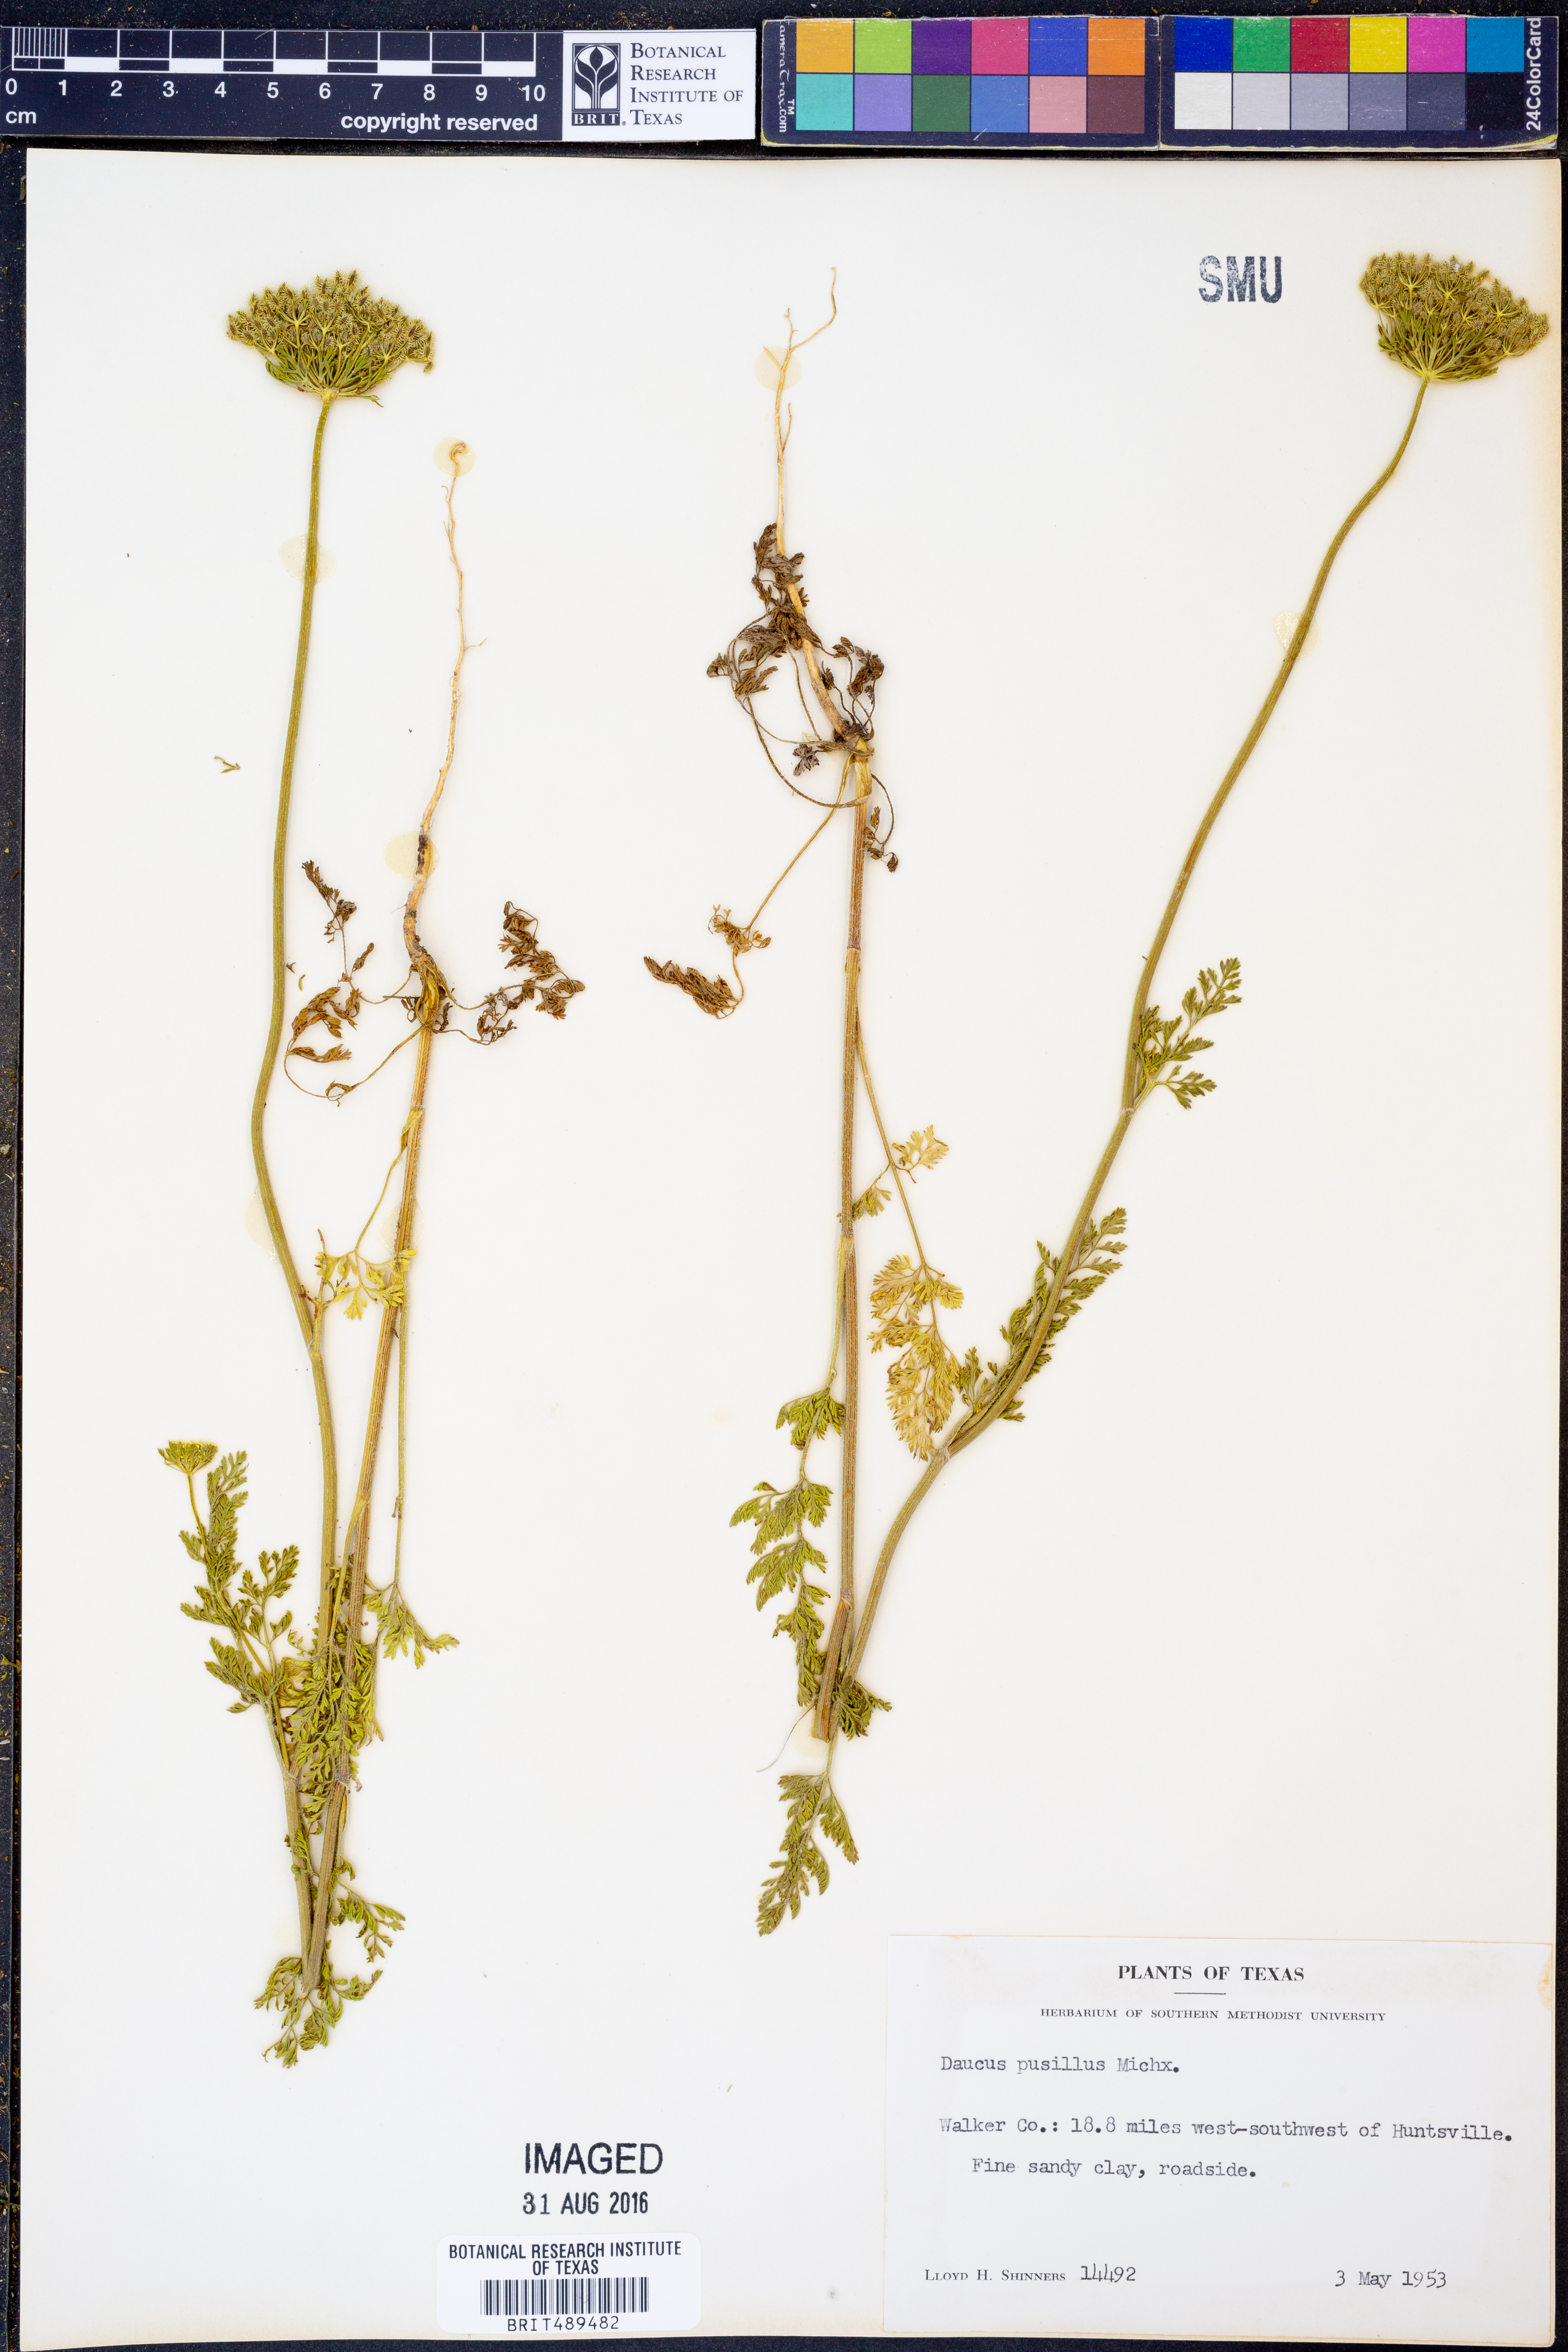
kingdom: Plantae
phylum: Tracheophyta
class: Magnoliopsida
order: Apiales
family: Apiaceae
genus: Daucus
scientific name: Daucus pusillus
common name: Southwest wild carrot
